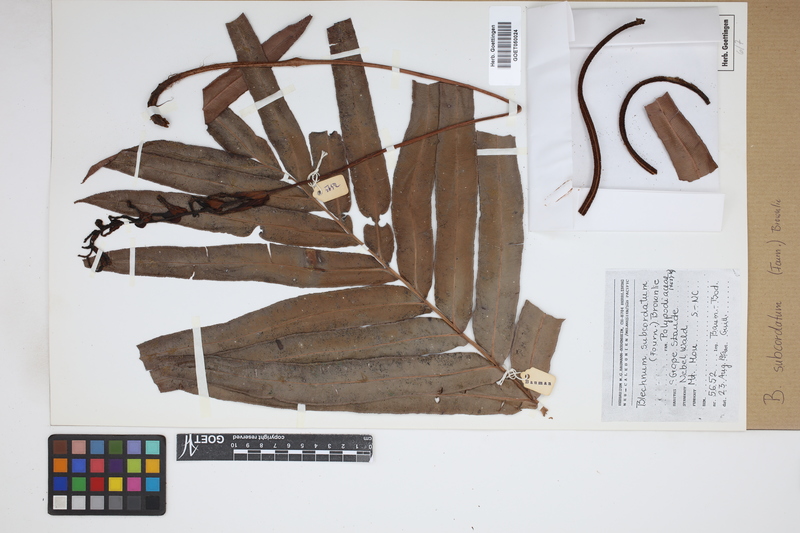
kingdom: Plantae
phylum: Tracheophyta
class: Polypodiopsida
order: Polypodiales
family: Blechnaceae
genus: Parablechnum
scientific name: Parablechnum subcordatum
